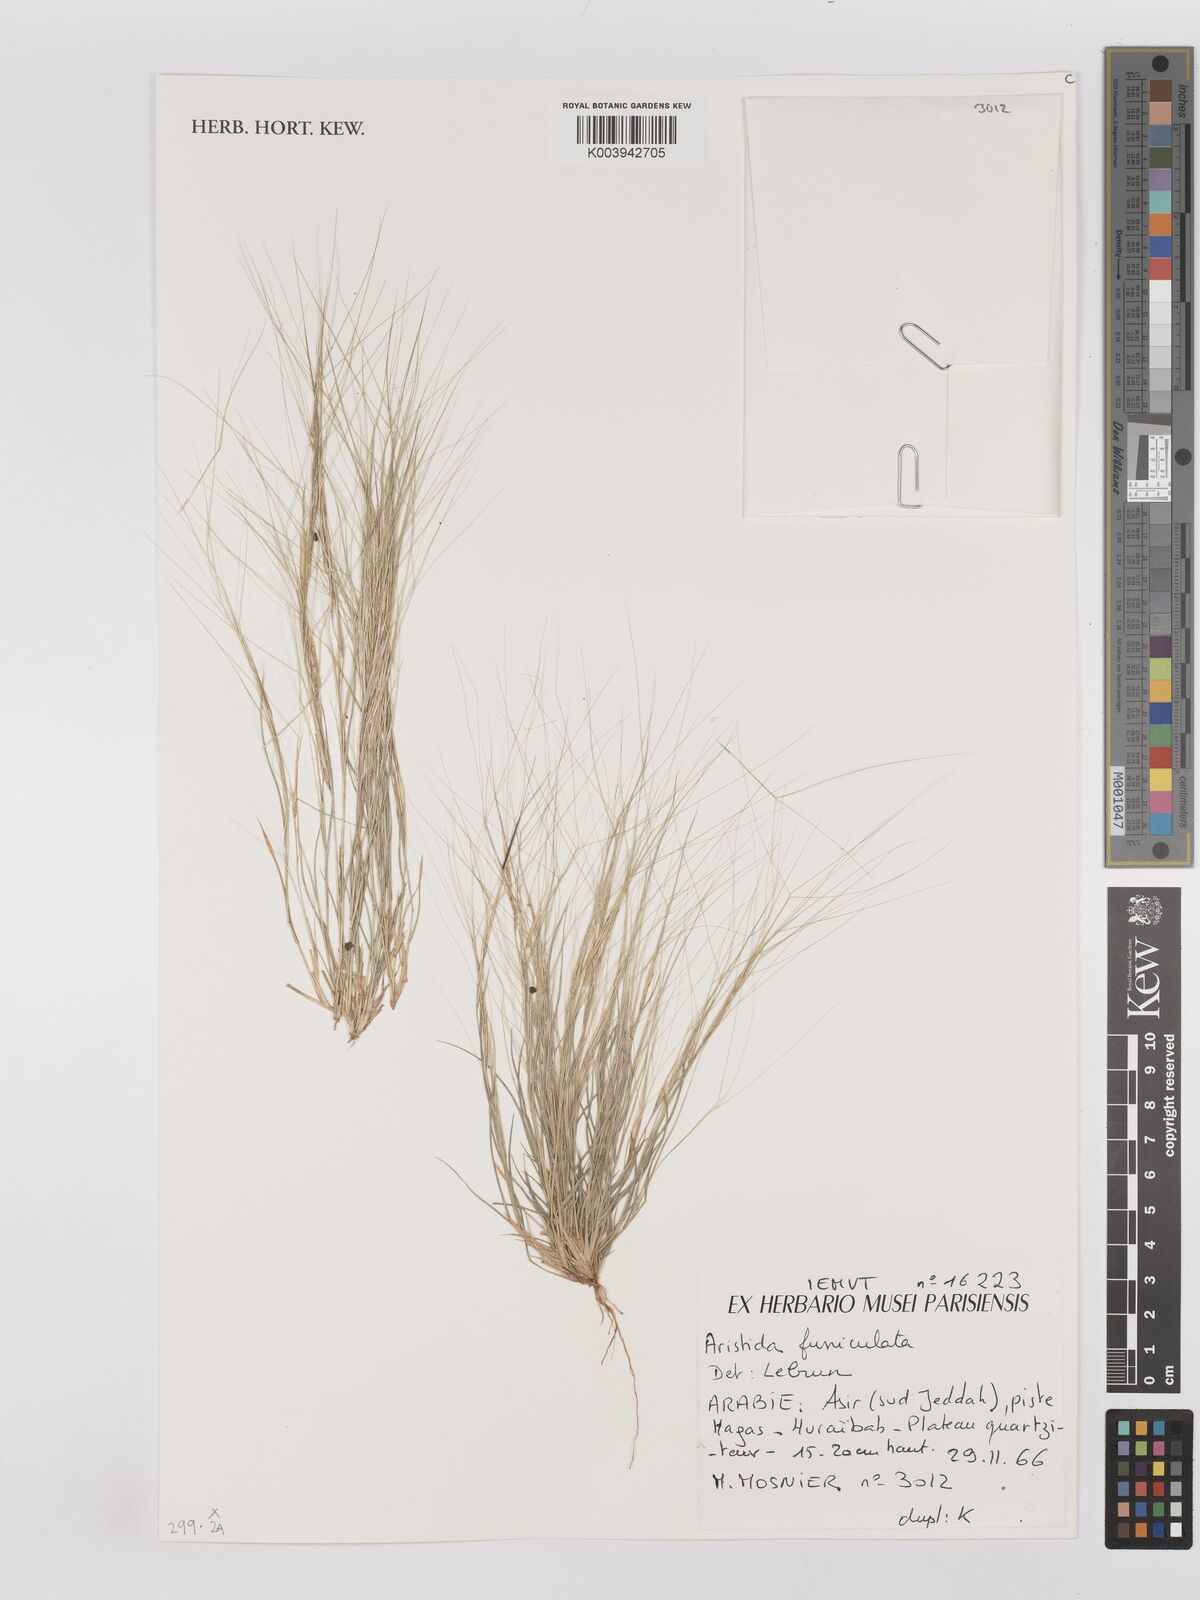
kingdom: Plantae
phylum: Tracheophyta
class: Liliopsida
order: Poales
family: Poaceae
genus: Aristida
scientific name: Aristida funiculata
